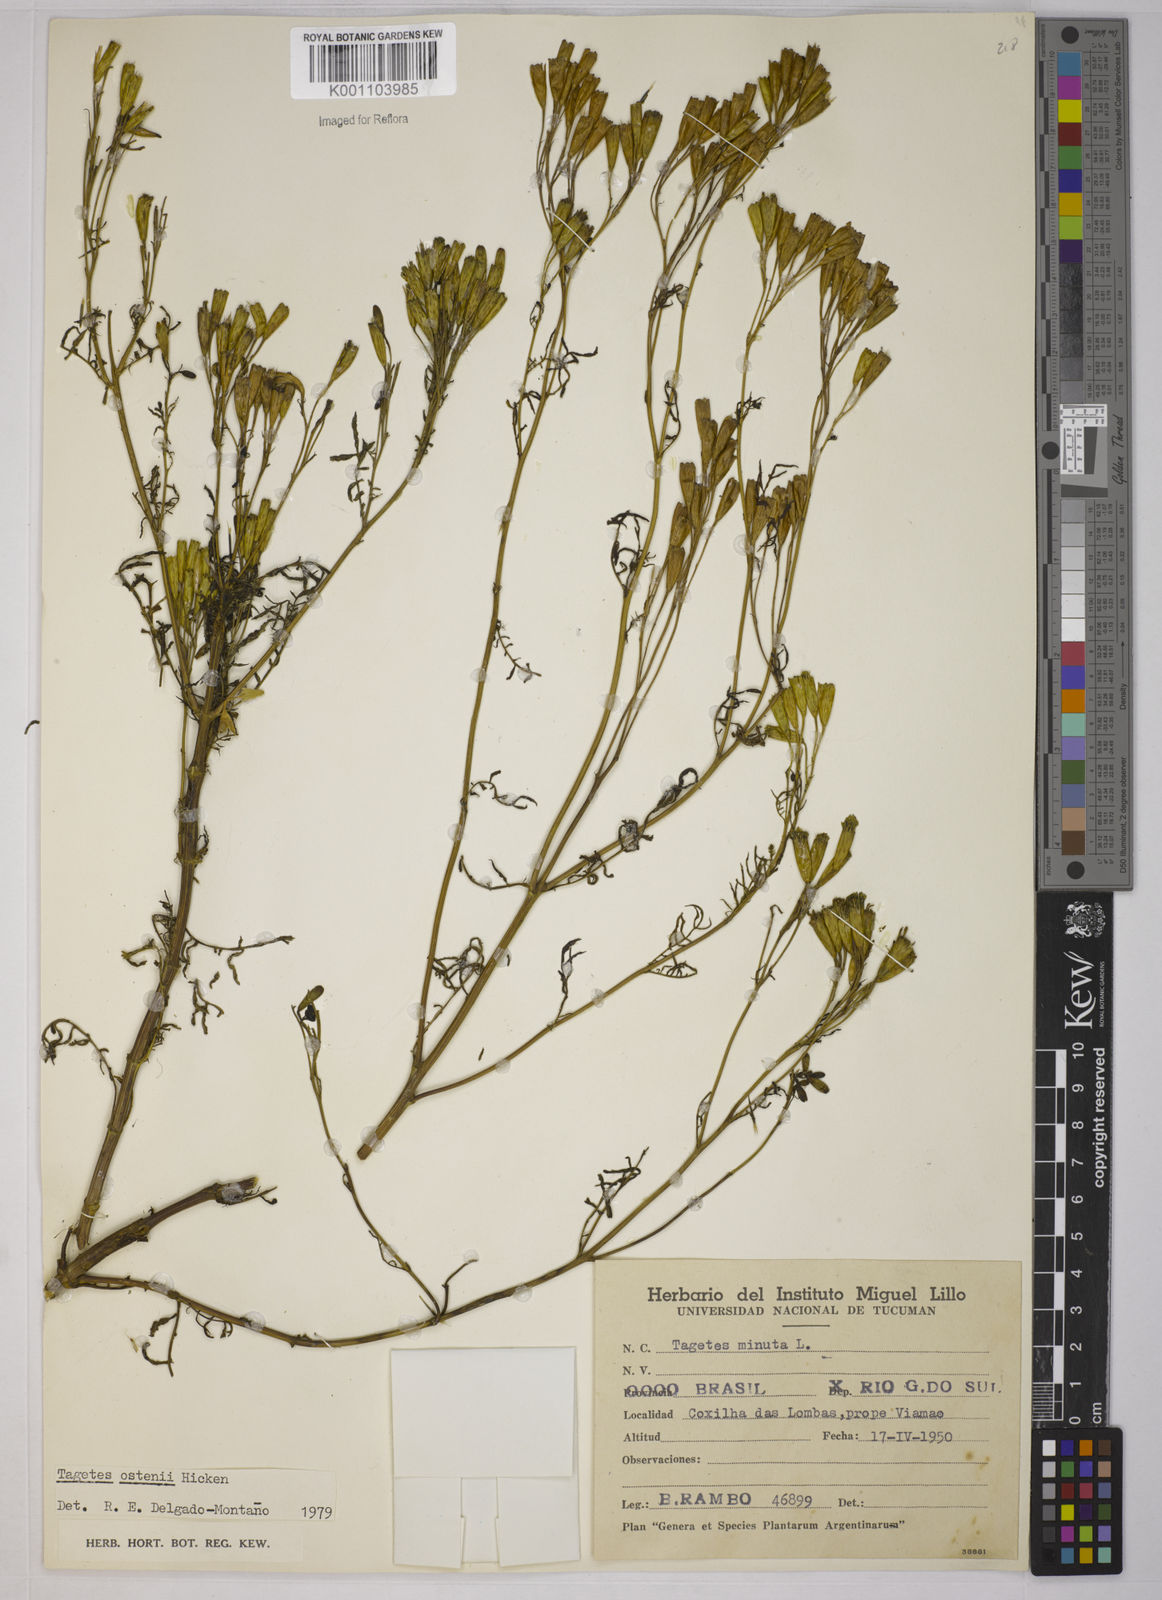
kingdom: Plantae
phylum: Tracheophyta
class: Magnoliopsida
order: Asterales
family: Asteraceae
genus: Tagetes
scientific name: Tagetes ostenii
